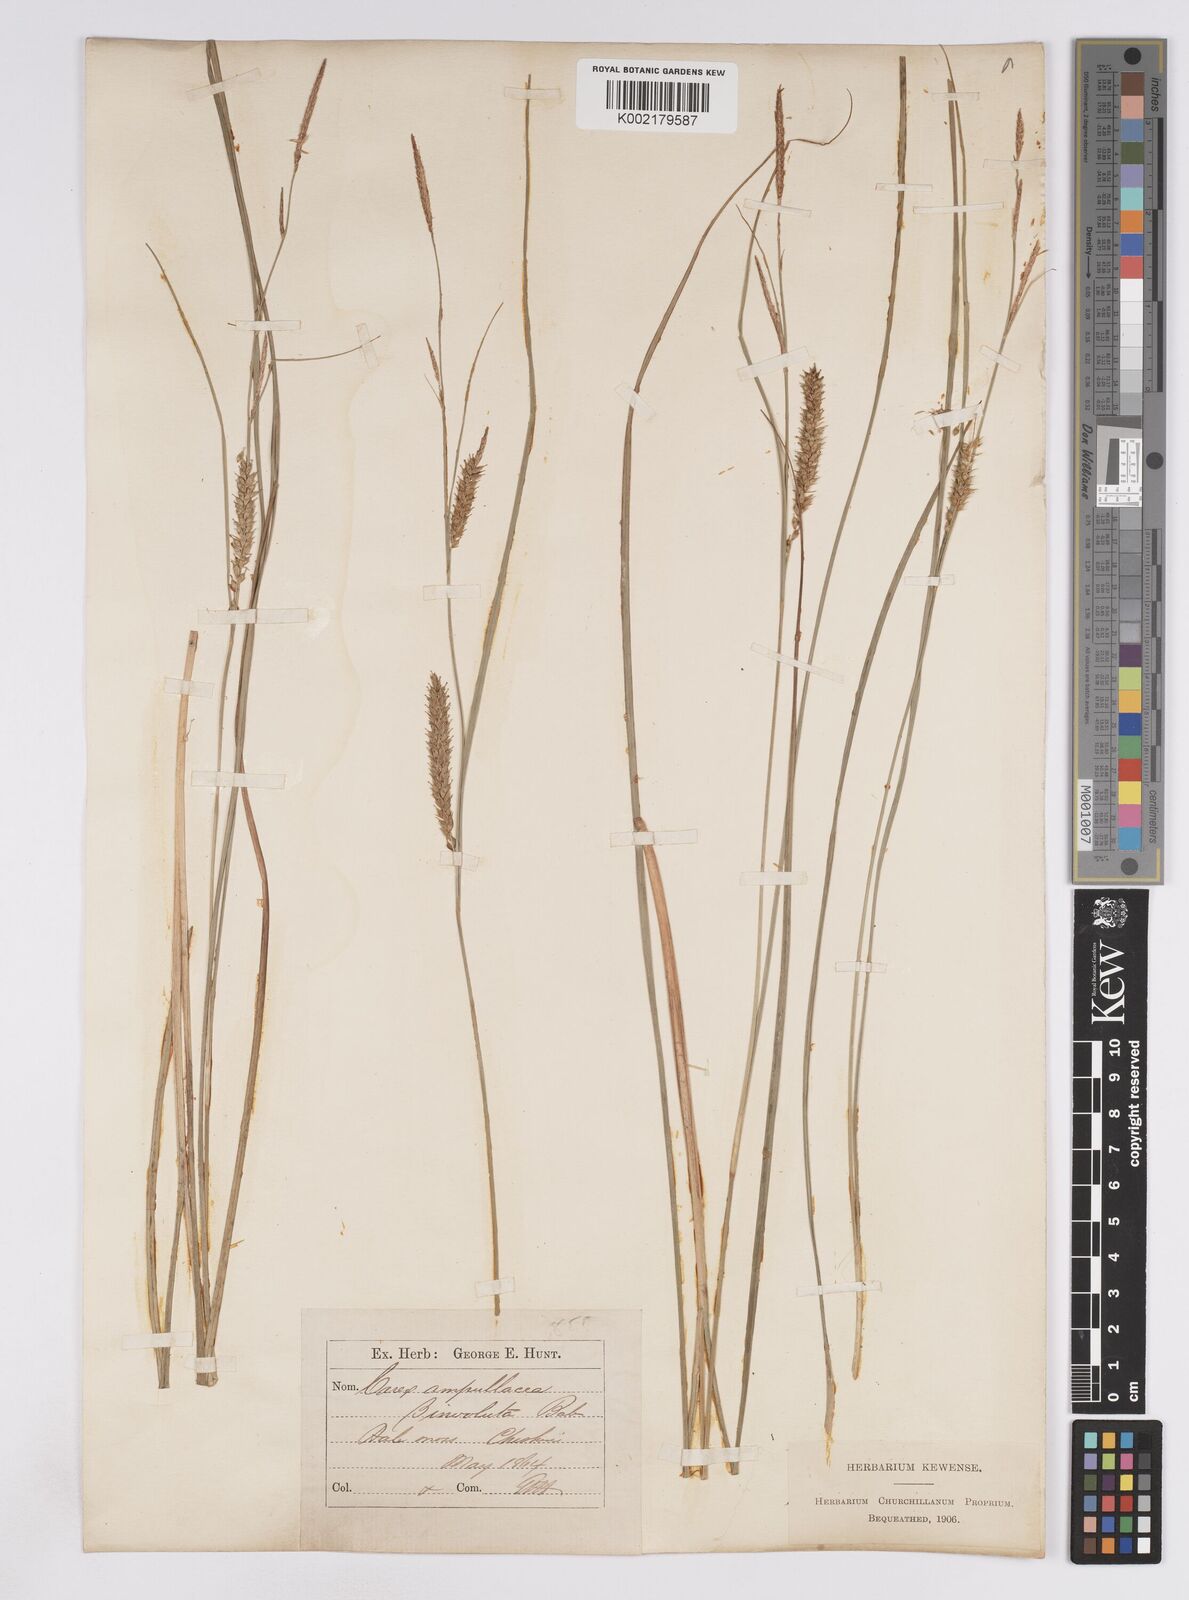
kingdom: Plantae
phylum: Tracheophyta
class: Liliopsida
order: Poales
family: Cyperaceae
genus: Carex
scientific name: Carex rostrata
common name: Bottle sedge
